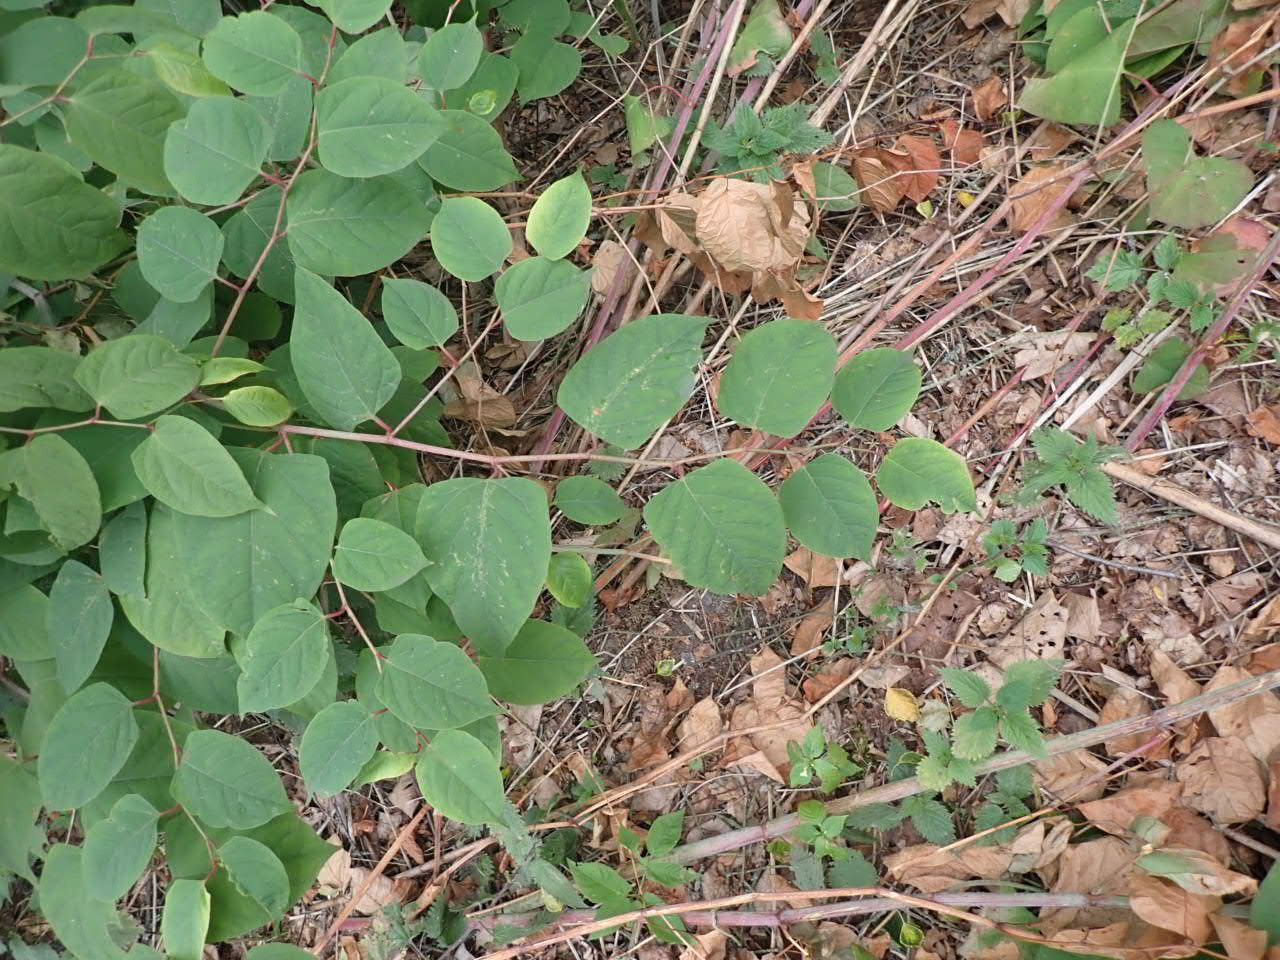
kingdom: Plantae
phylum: Tracheophyta
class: Magnoliopsida
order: Caryophyllales
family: Polygonaceae
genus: Reynoutria
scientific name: Reynoutria japonica
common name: Japan-pileurt
